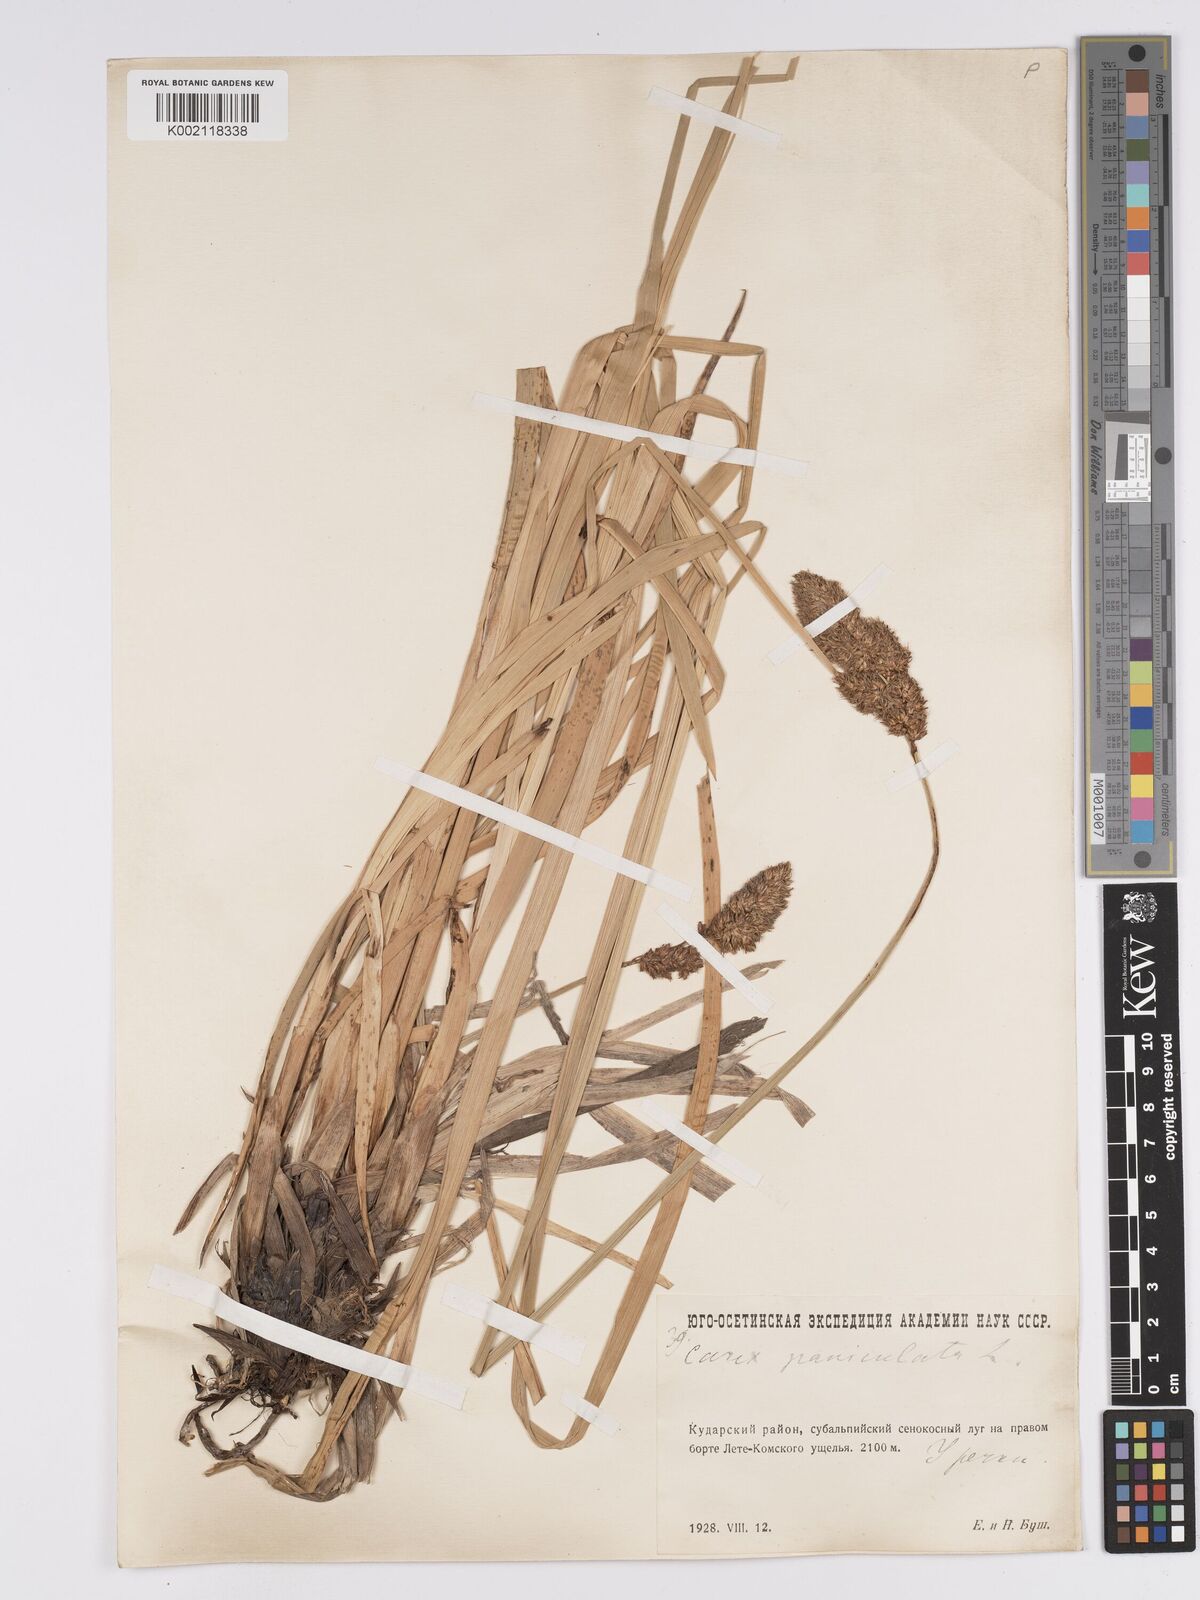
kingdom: Plantae
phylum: Tracheophyta
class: Liliopsida
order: Poales
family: Cyperaceae
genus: Carex
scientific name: Carex paniculata
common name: Greater tussock-sedge
